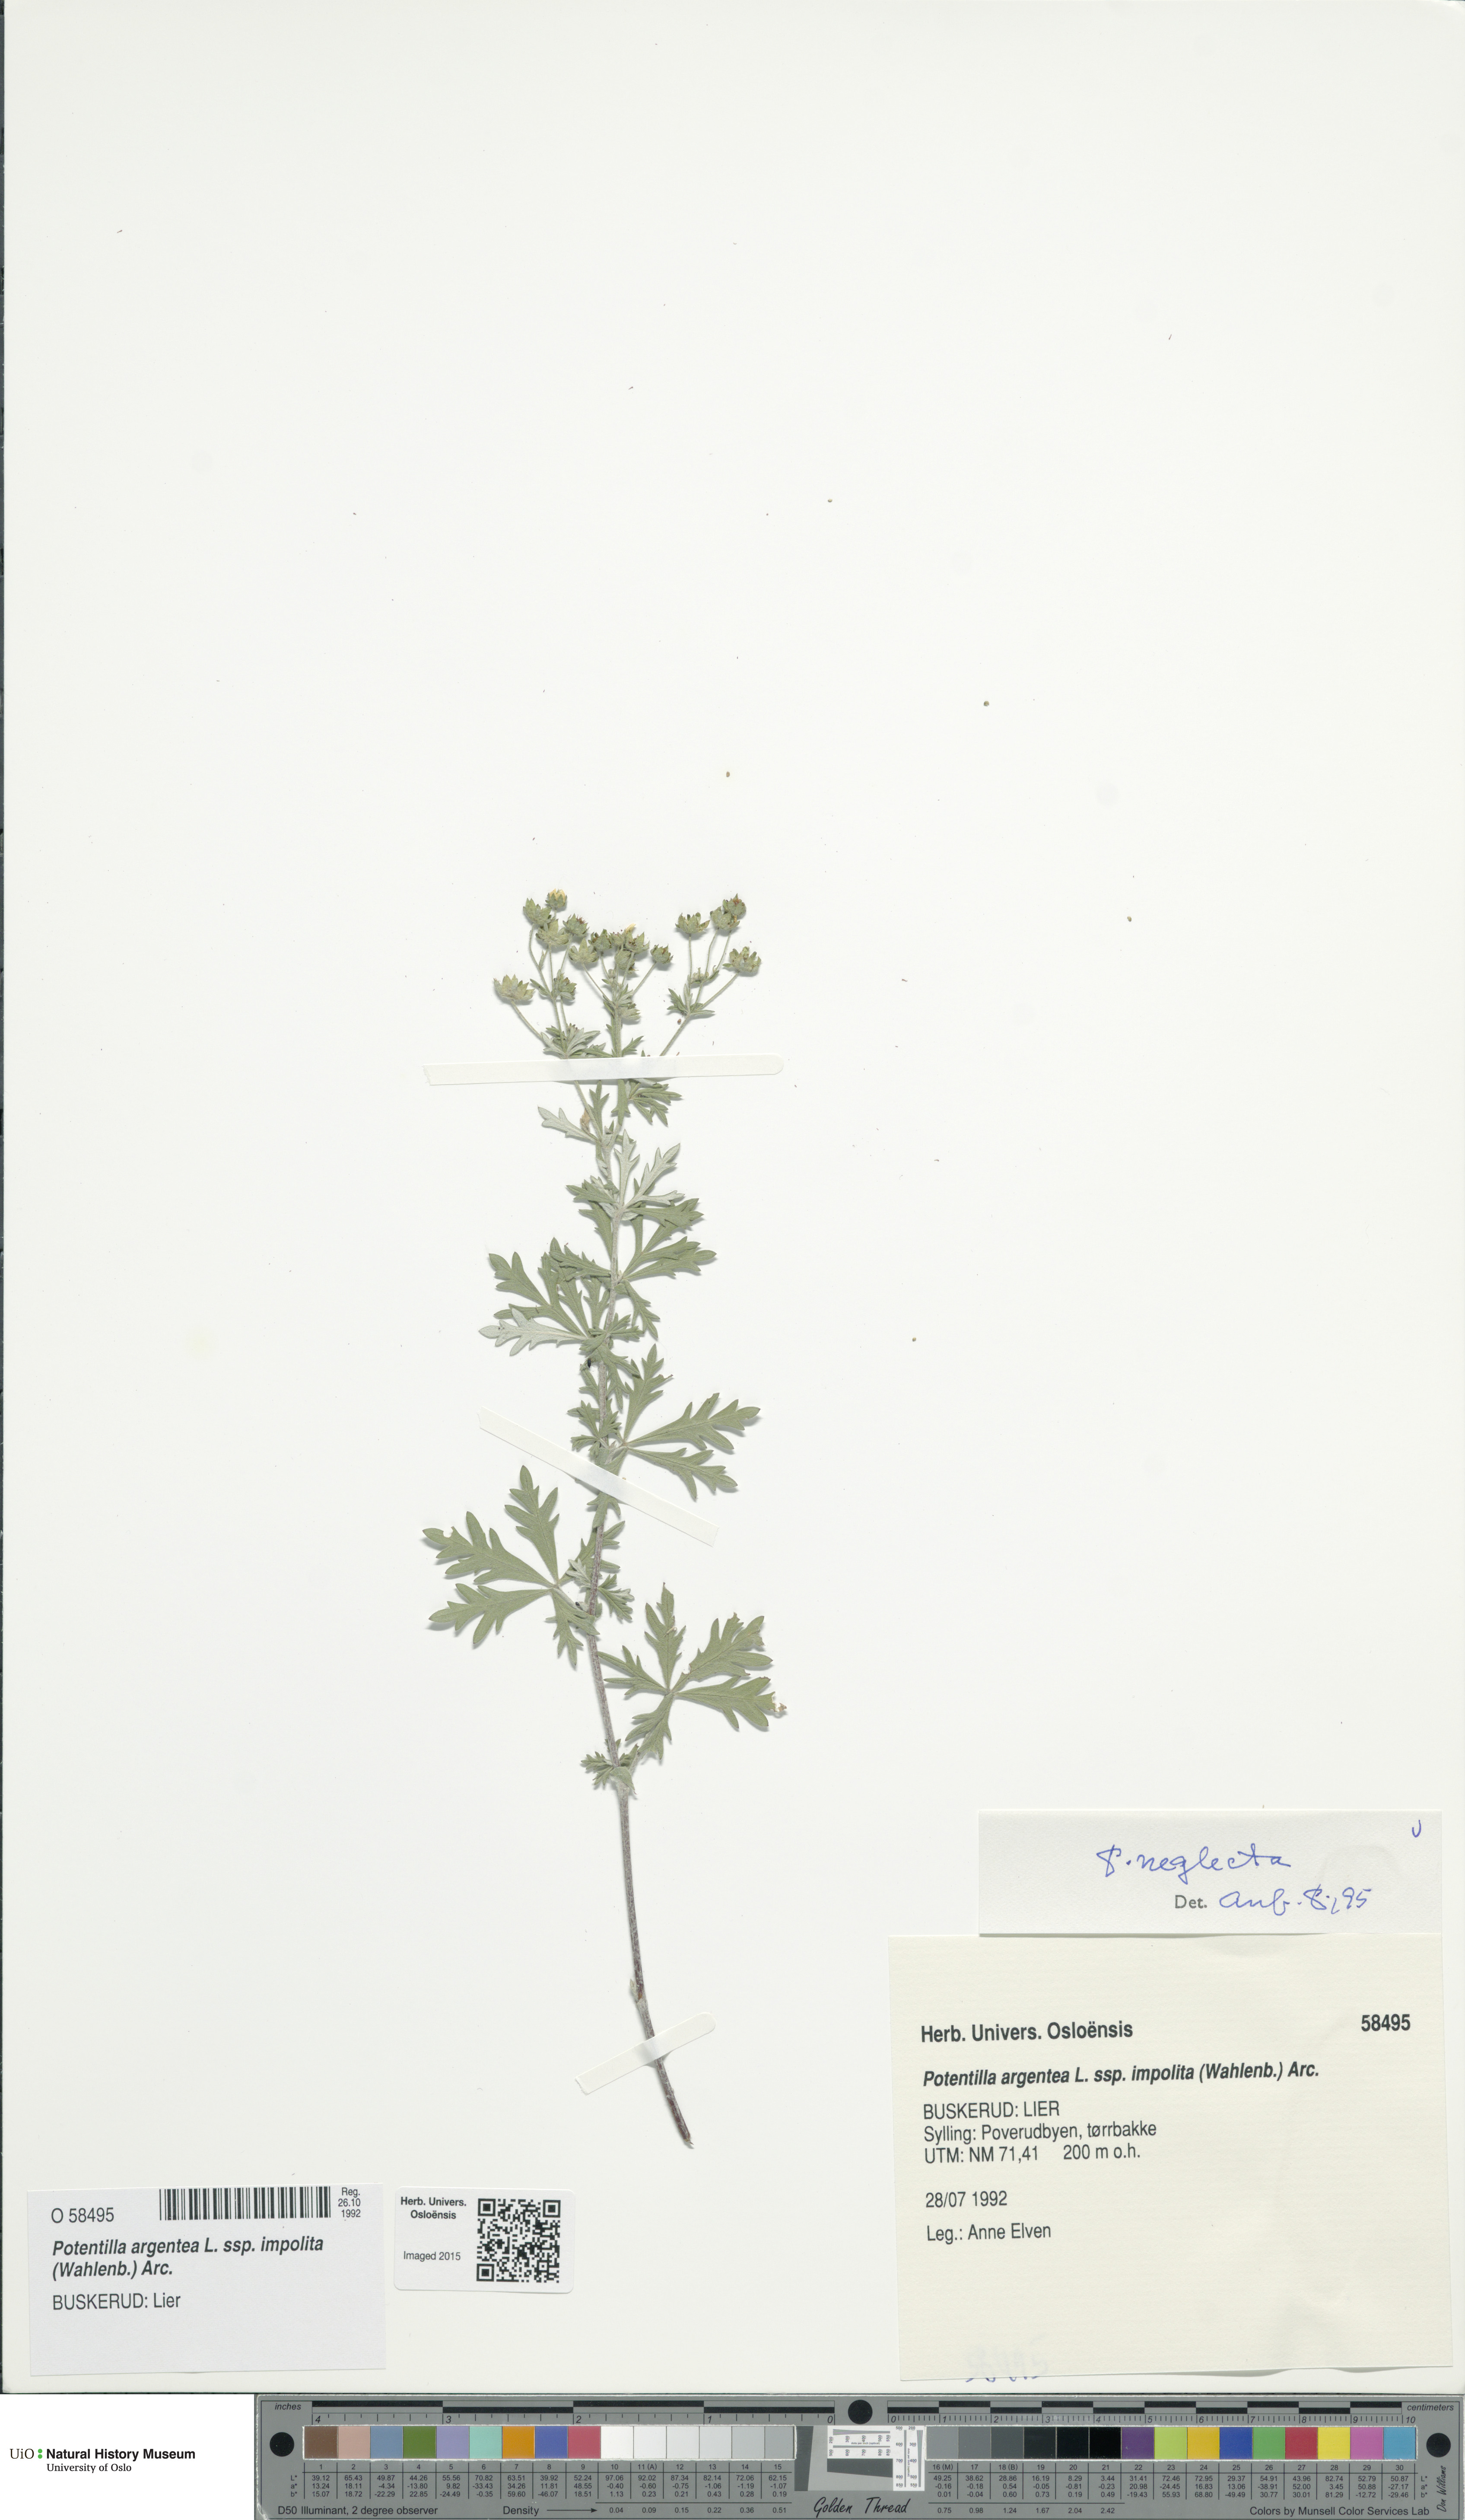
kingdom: Plantae
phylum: Tracheophyta
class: Magnoliopsida
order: Rosales
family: Rosaceae
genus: Potentilla
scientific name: Potentilla neglecta
